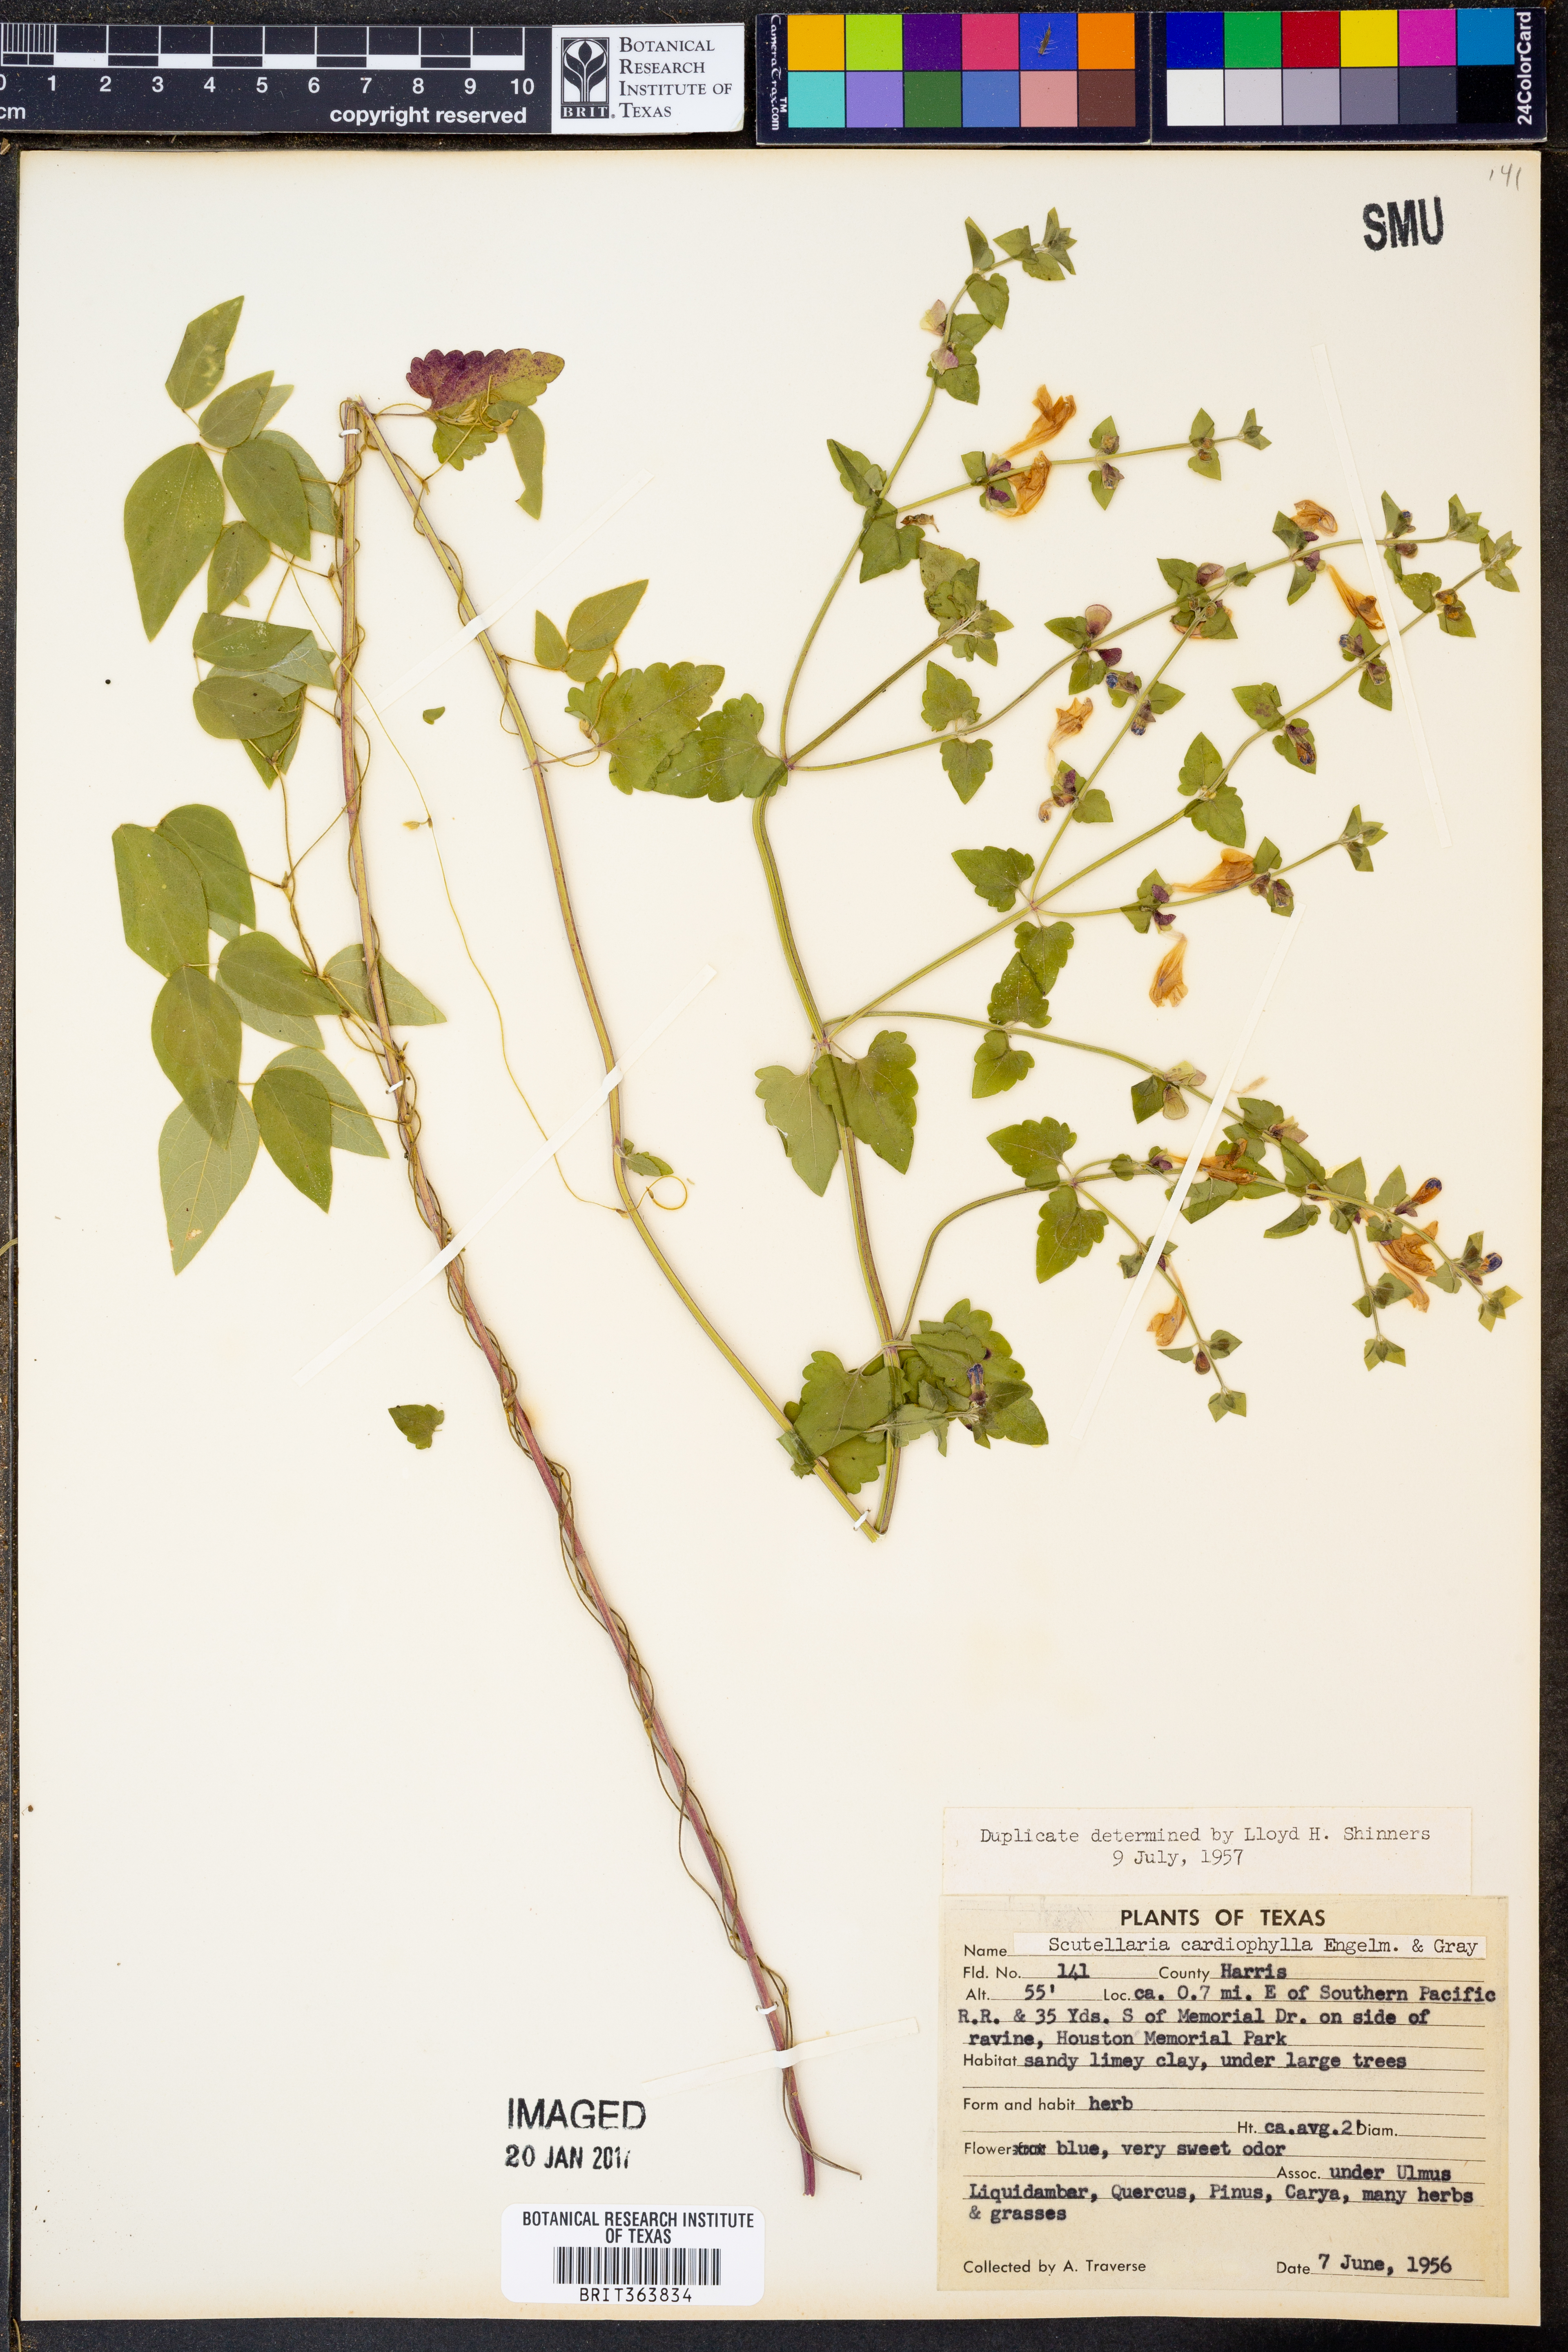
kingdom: Plantae
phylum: Tracheophyta
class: Magnoliopsida
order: Lamiales
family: Lamiaceae
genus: Scutellaria
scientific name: Scutellaria cardiophylla
